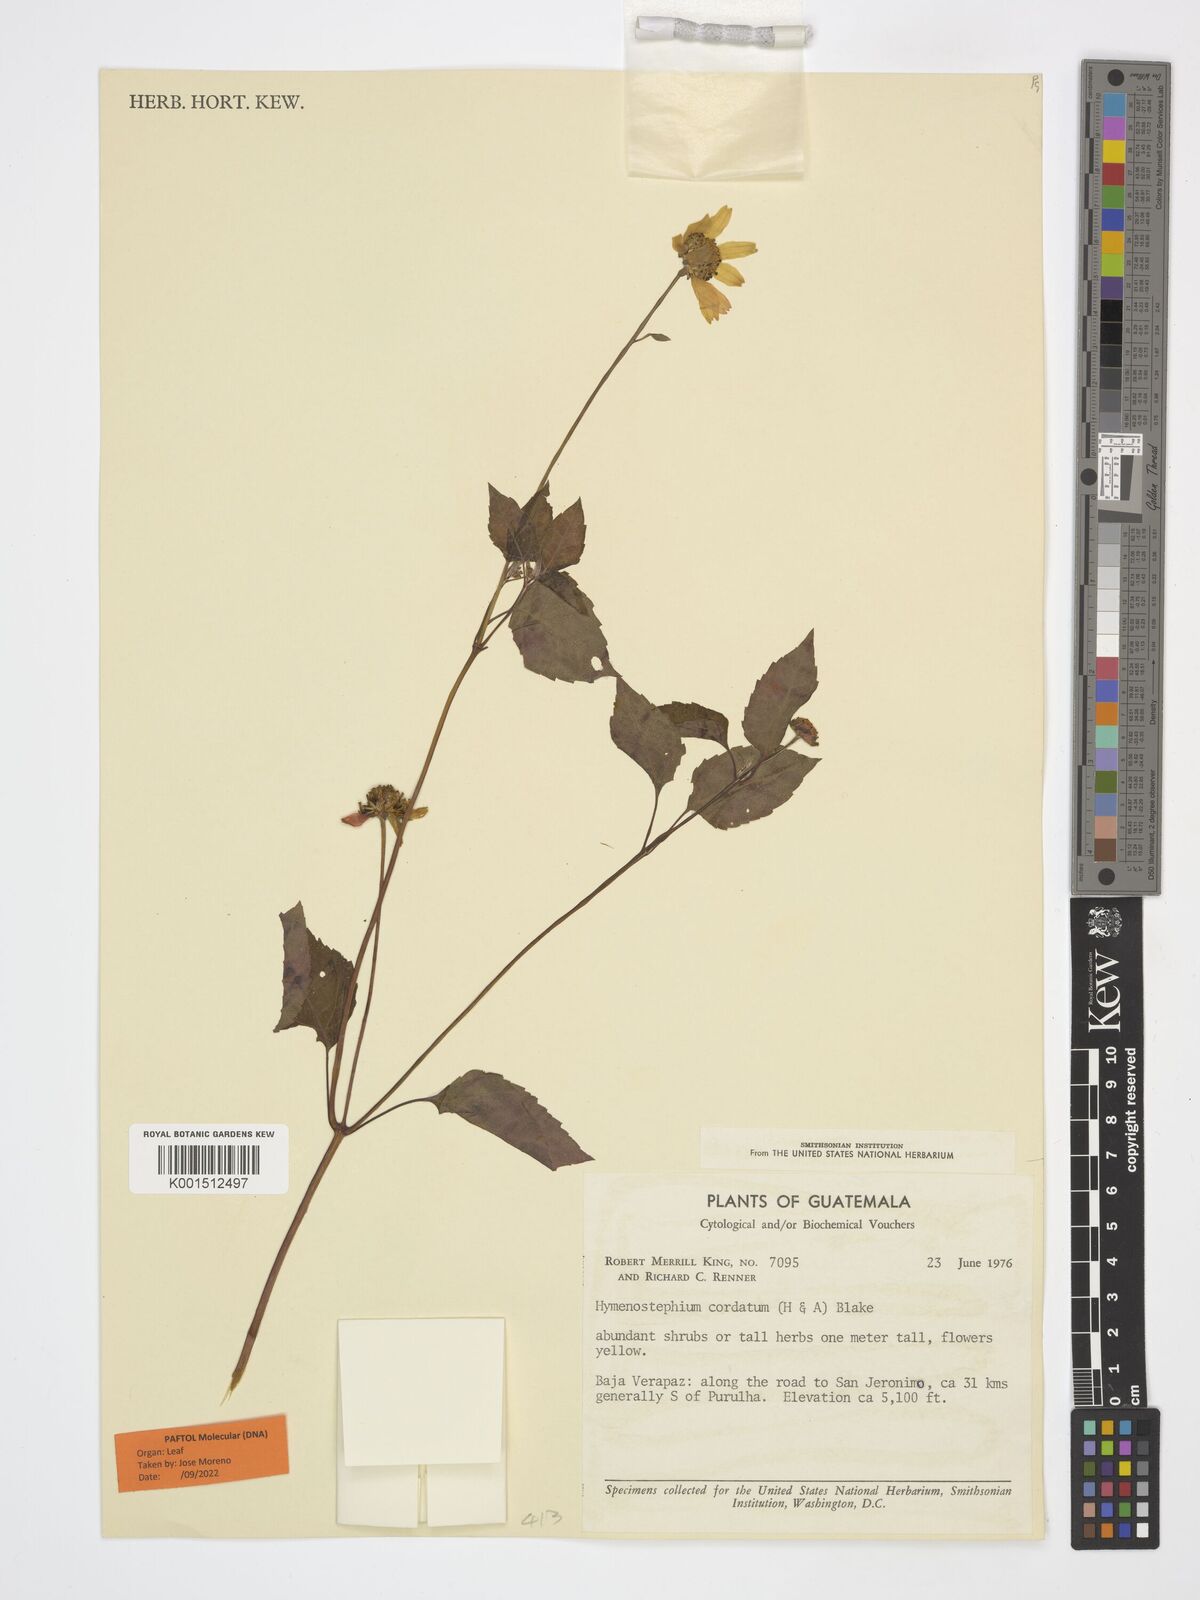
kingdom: Plantae
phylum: Tracheophyta
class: Magnoliopsida
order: Asterales
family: Asteraceae
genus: Hymenostephium
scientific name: Hymenostephium cordatum
